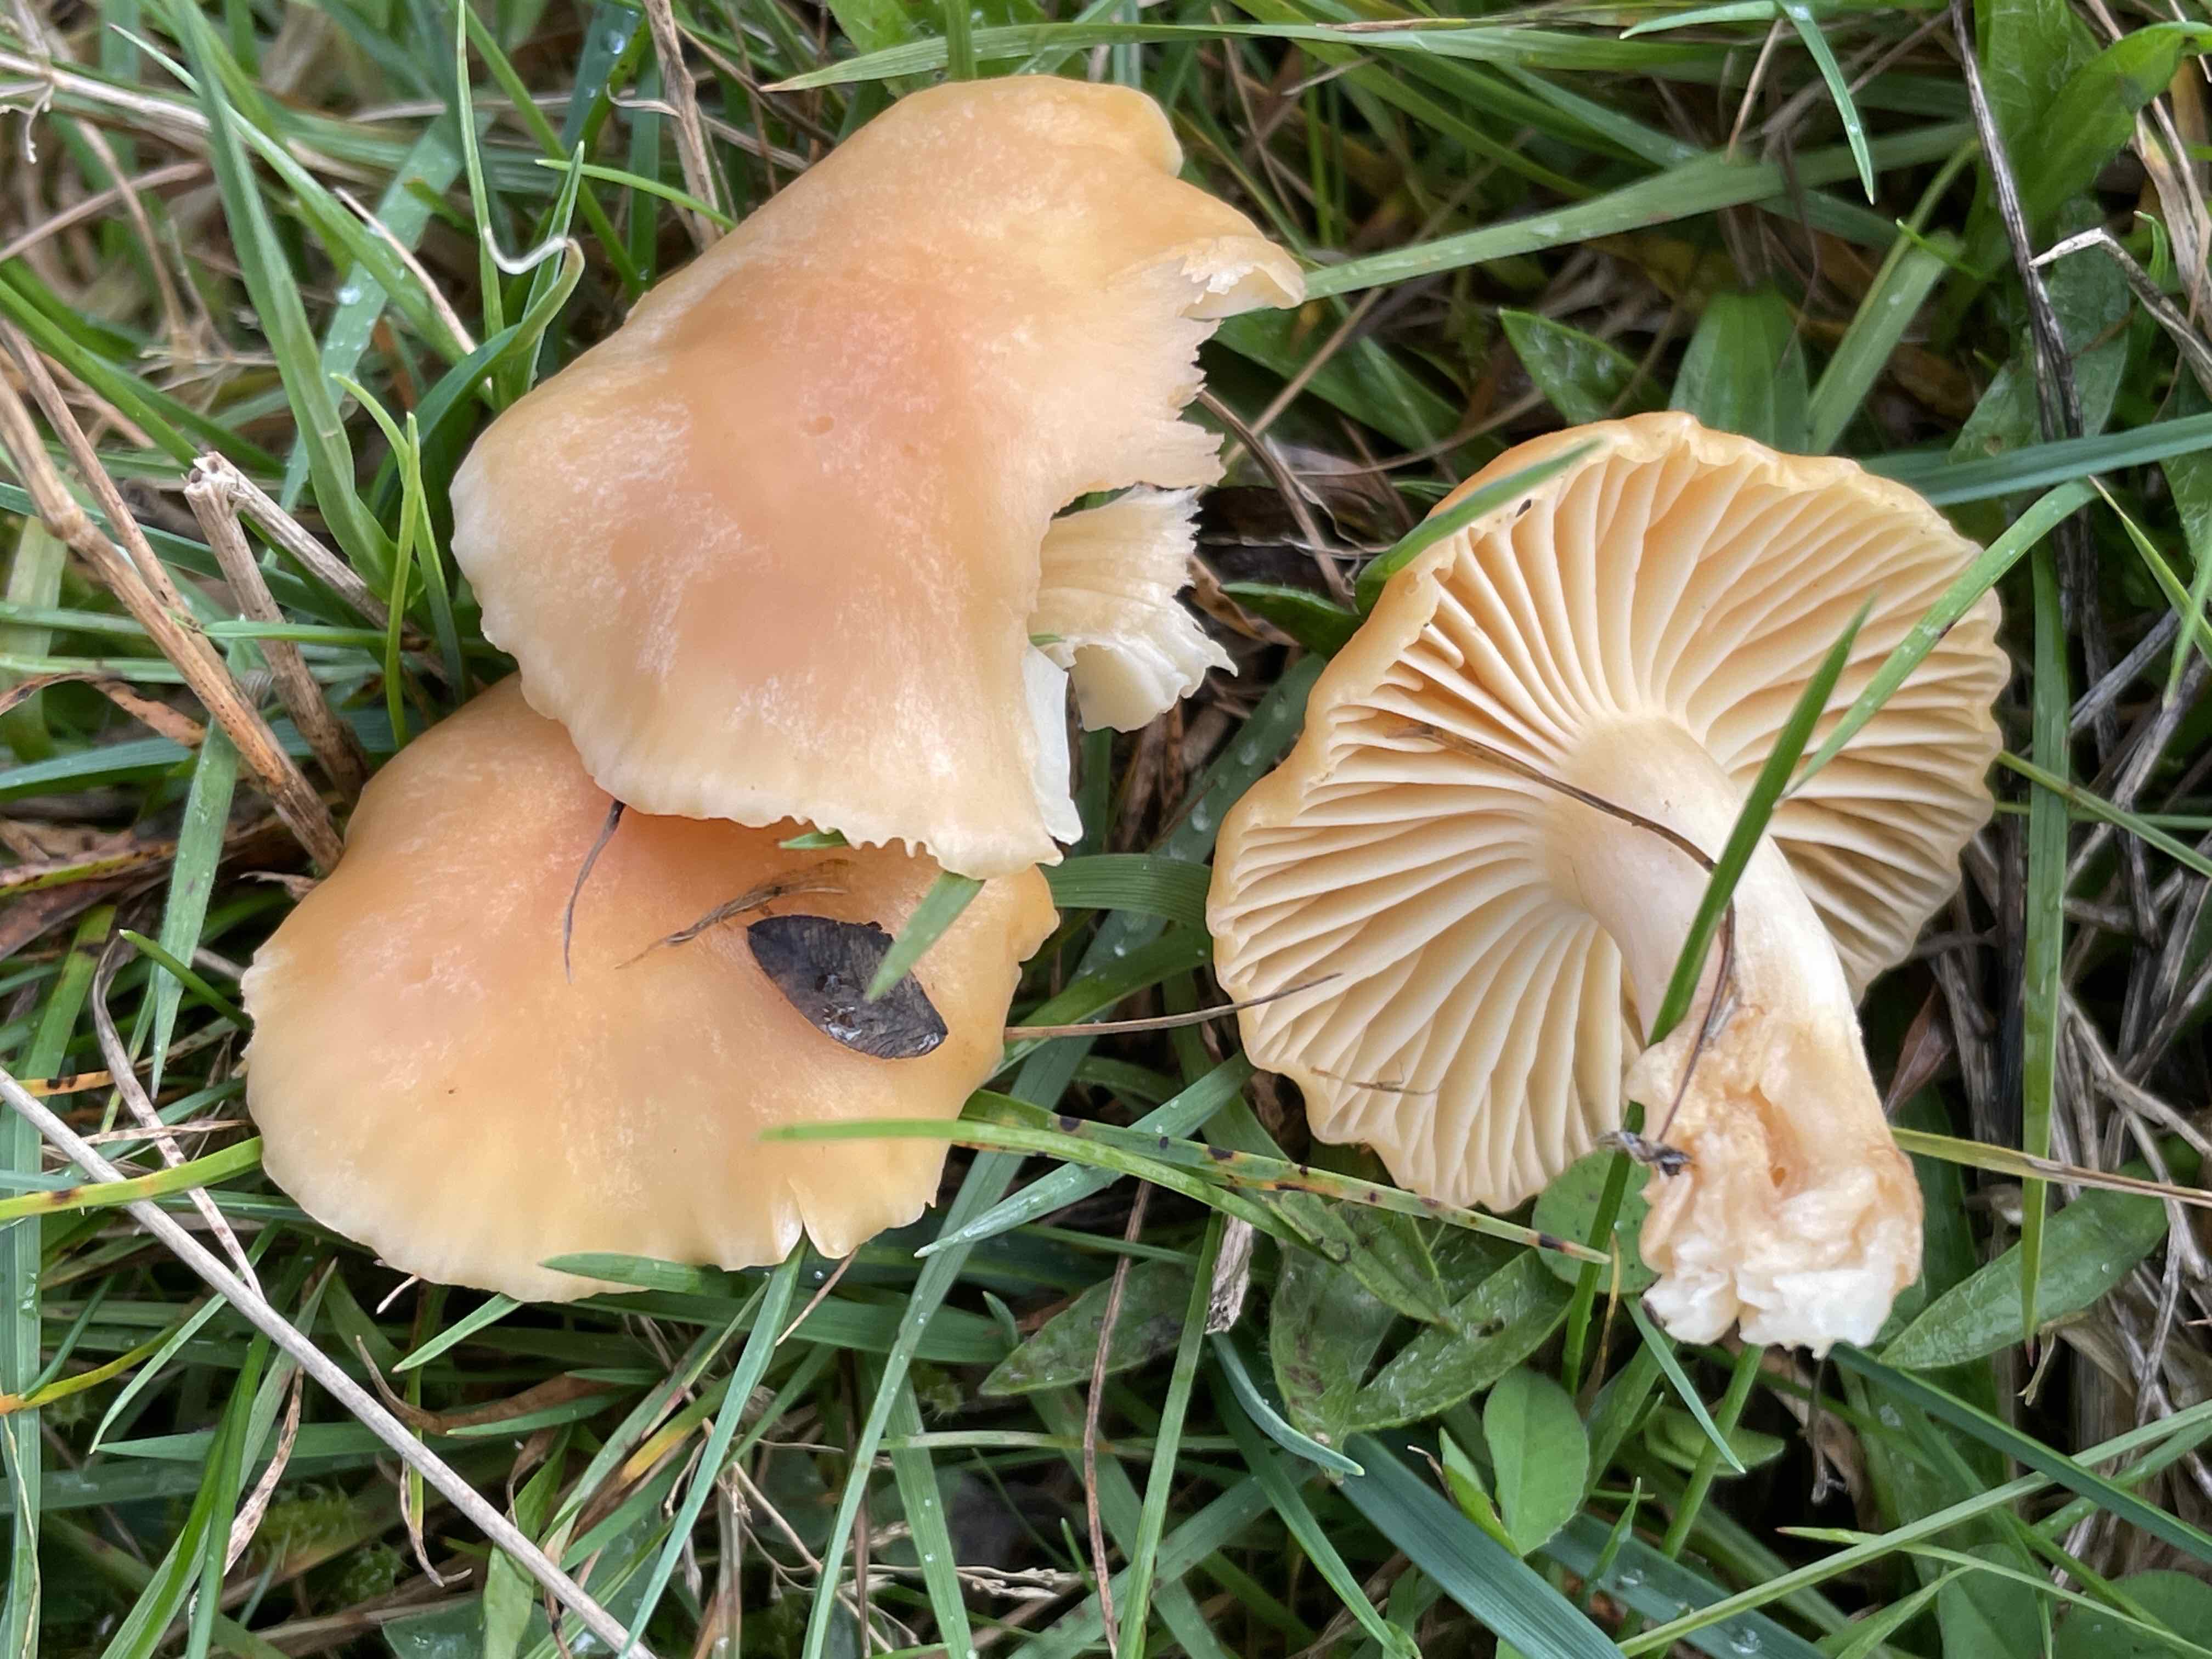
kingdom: Fungi
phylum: Basidiomycota
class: Agaricomycetes
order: Agaricales
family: Hygrophoraceae
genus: Cuphophyllus
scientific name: Cuphophyllus pratensis
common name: eng-vokshat
